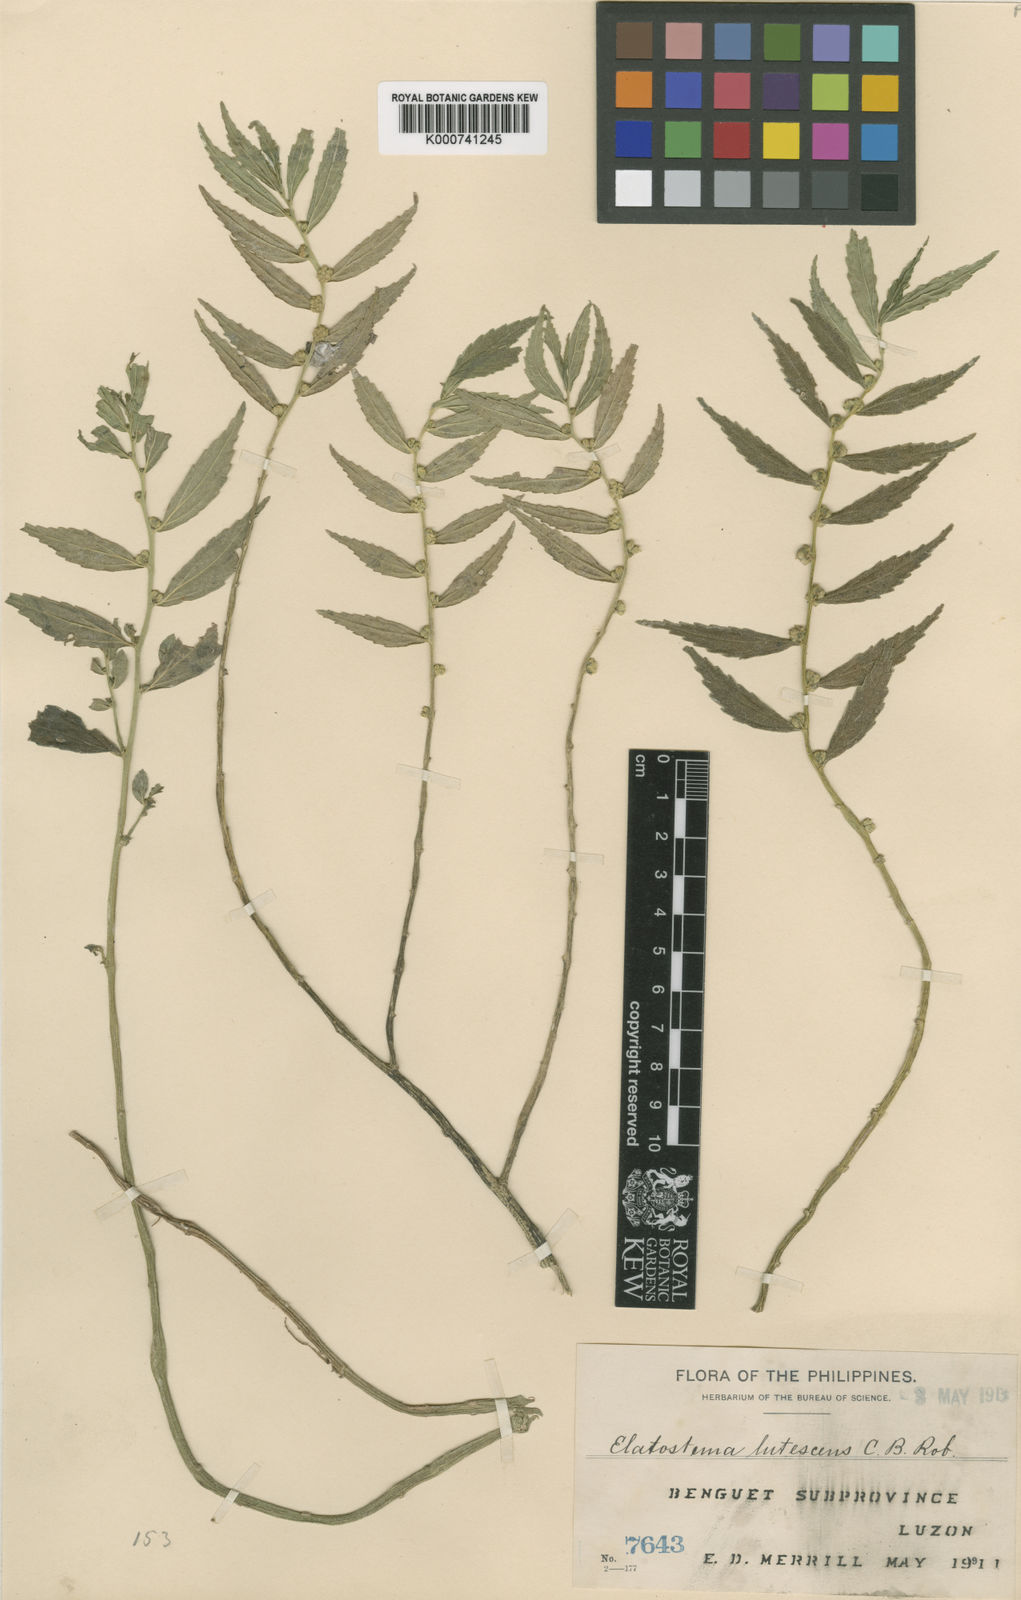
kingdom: Plantae
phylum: Tracheophyta
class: Magnoliopsida
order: Rosales
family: Urticaceae
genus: Elatostema
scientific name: Elatostema lutescens
